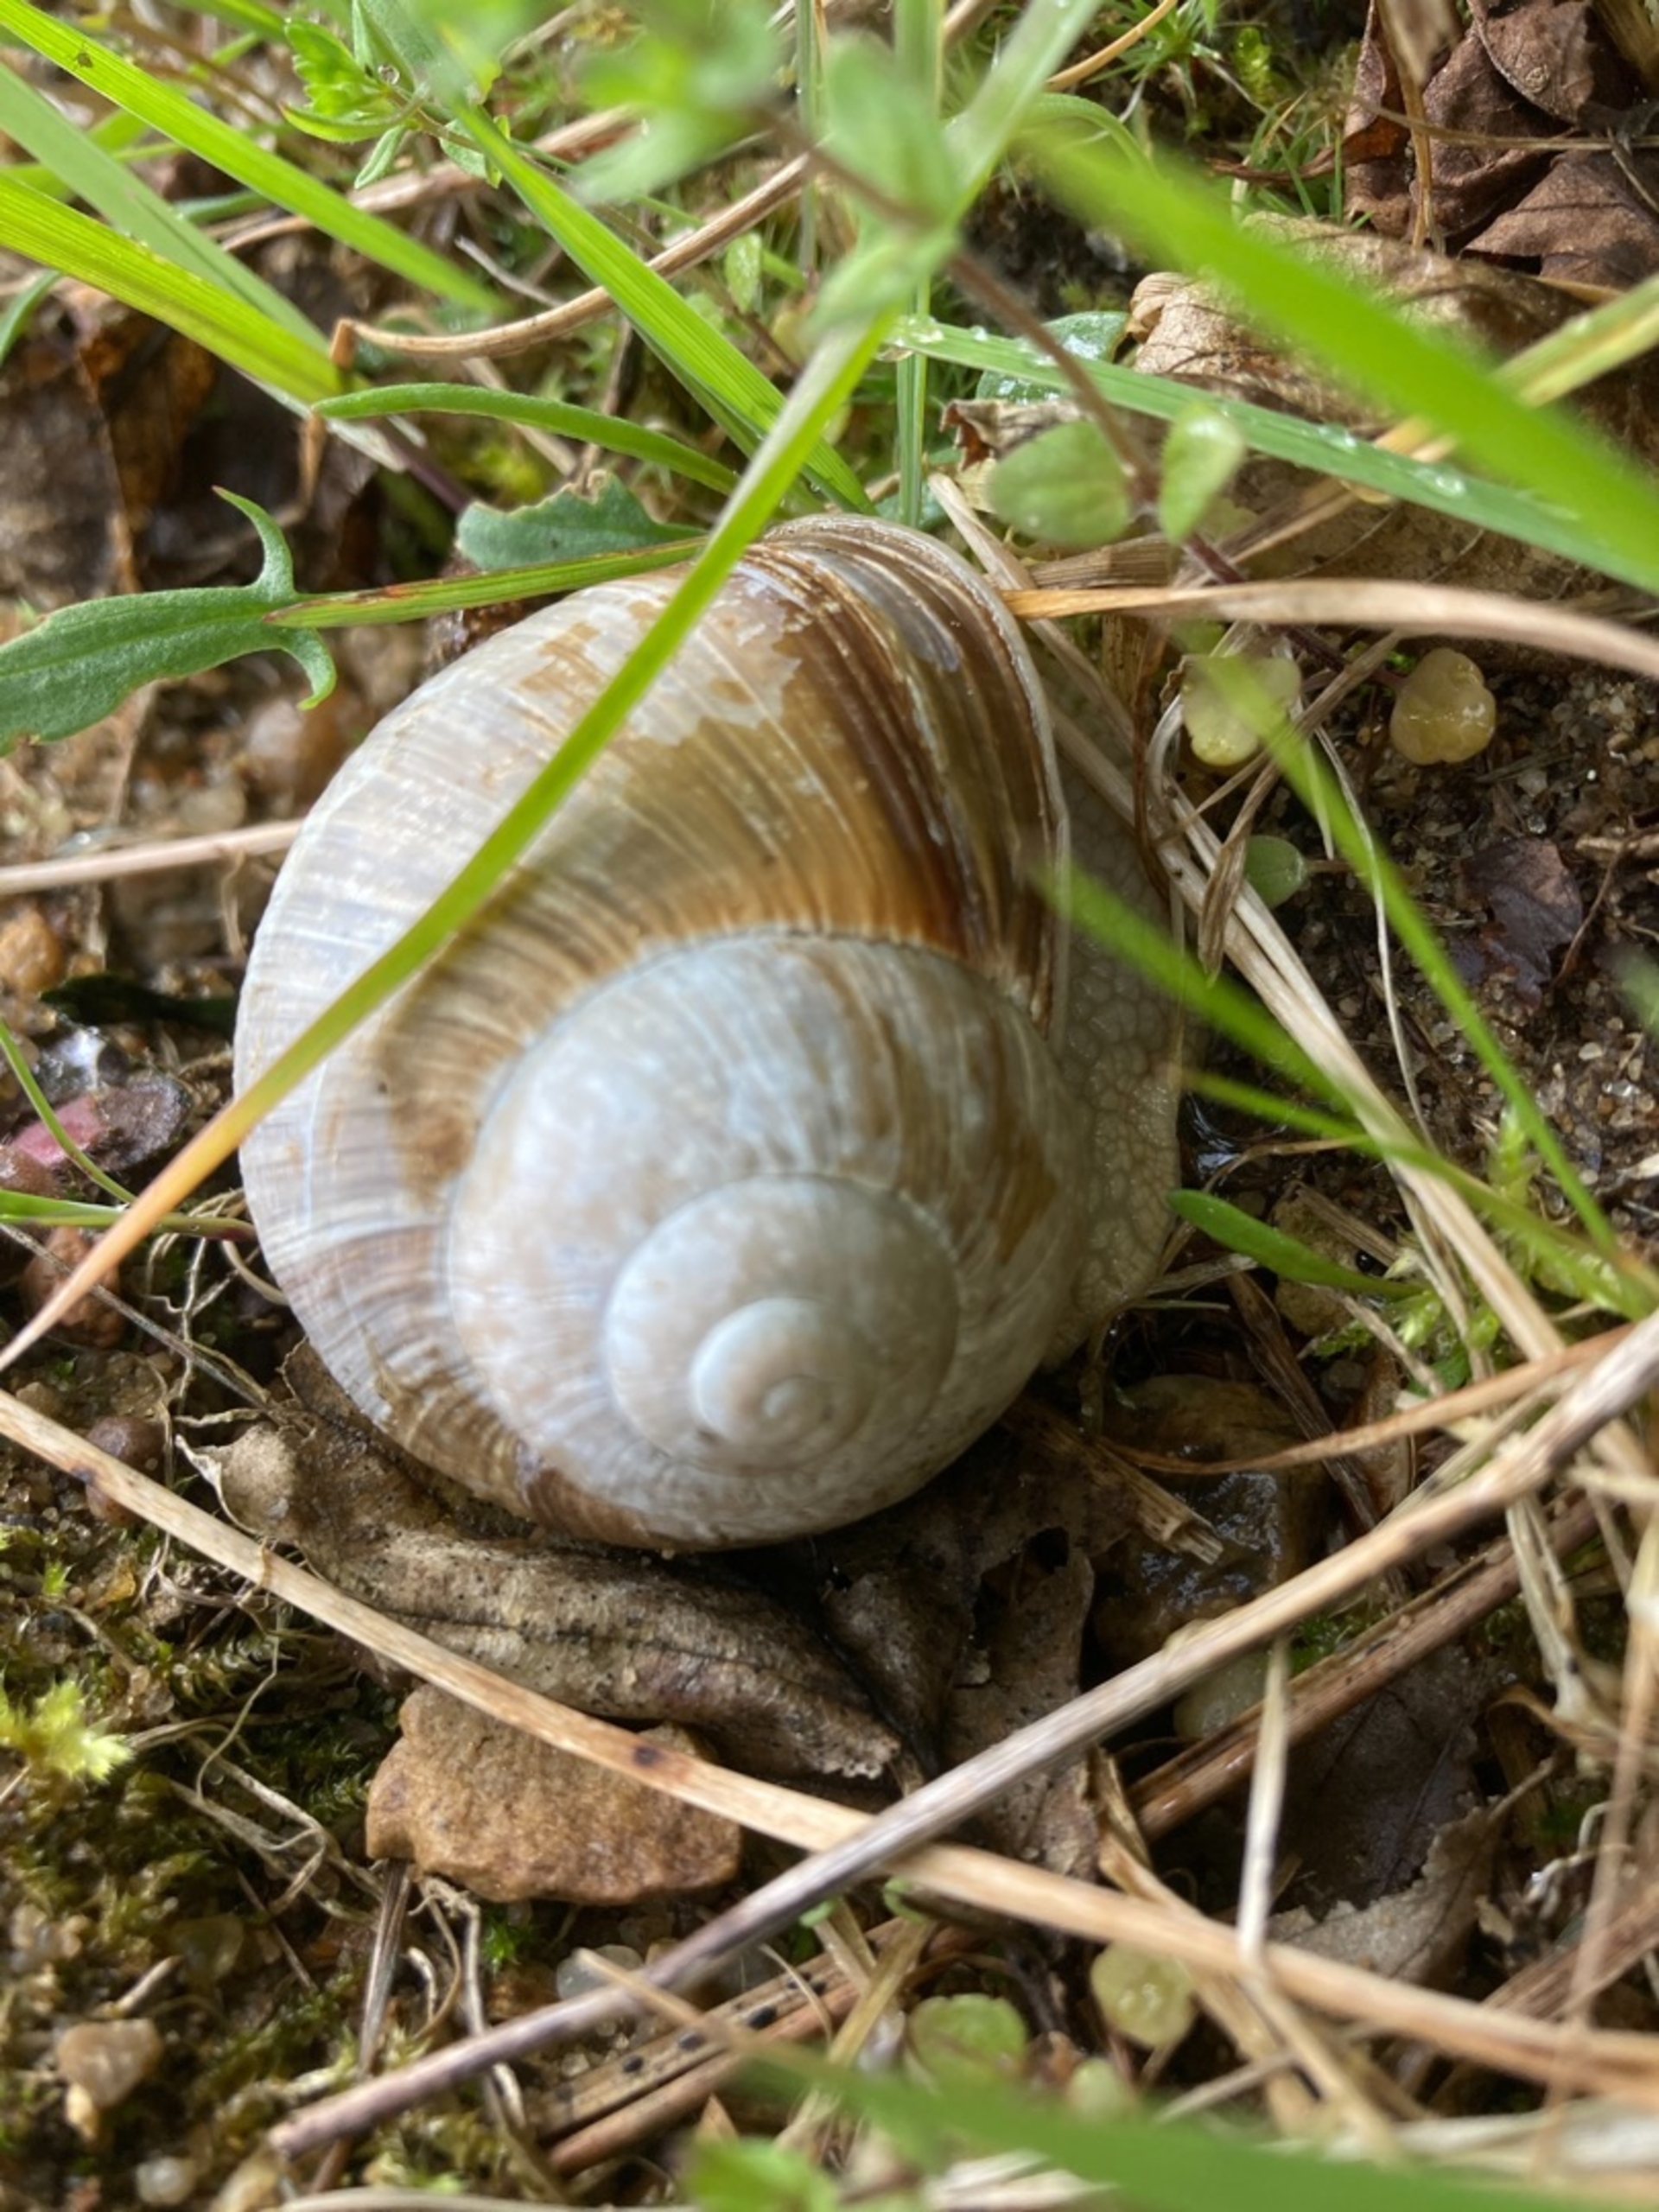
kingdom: Animalia
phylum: Mollusca
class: Gastropoda
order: Stylommatophora
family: Helicidae
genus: Helix
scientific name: Helix pomatia
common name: Vinbjergsnegl
